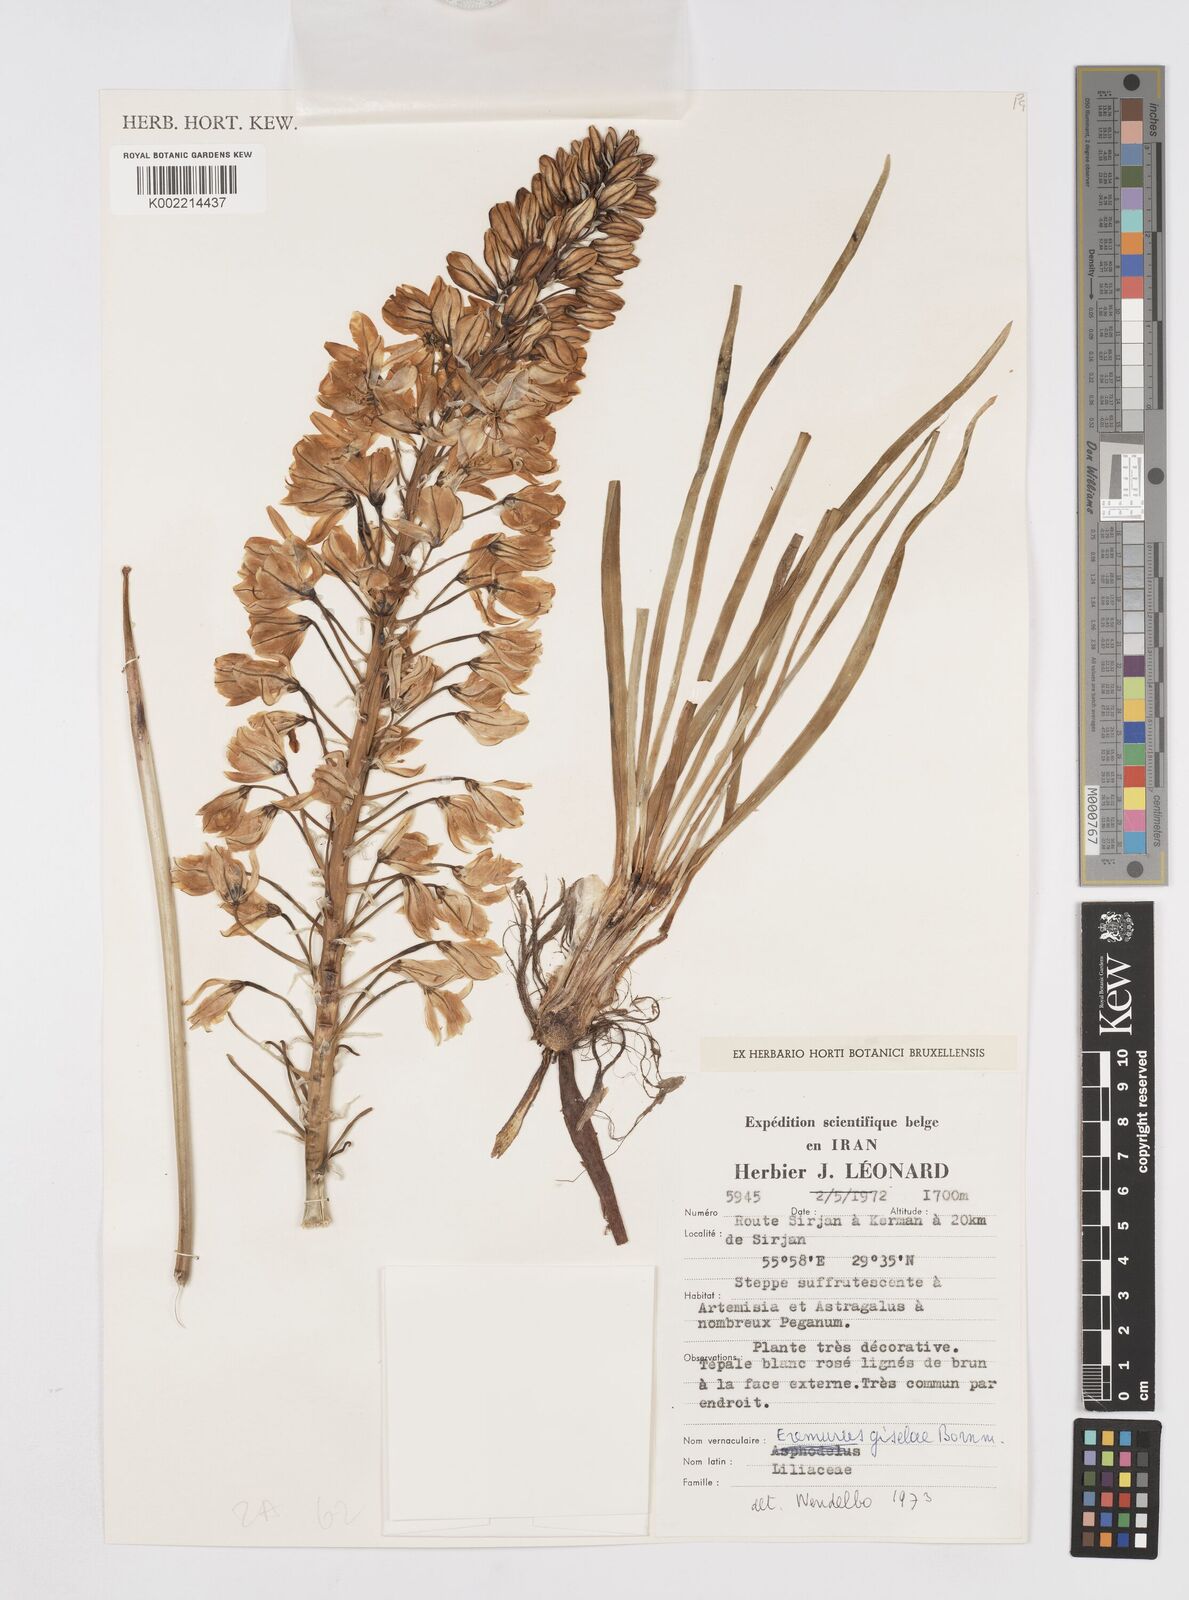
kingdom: Plantae
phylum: Tracheophyta
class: Liliopsida
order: Asparagales
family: Asphodelaceae
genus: Eremurus
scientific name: Eremurus kopet-daghensis
